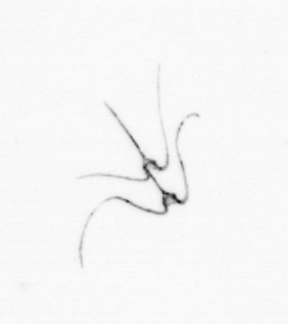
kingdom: Chromista
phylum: Myzozoa
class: Dinophyceae
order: Gonyaulacales
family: Ceratiaceae
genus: Ceratium
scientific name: Ceratium
